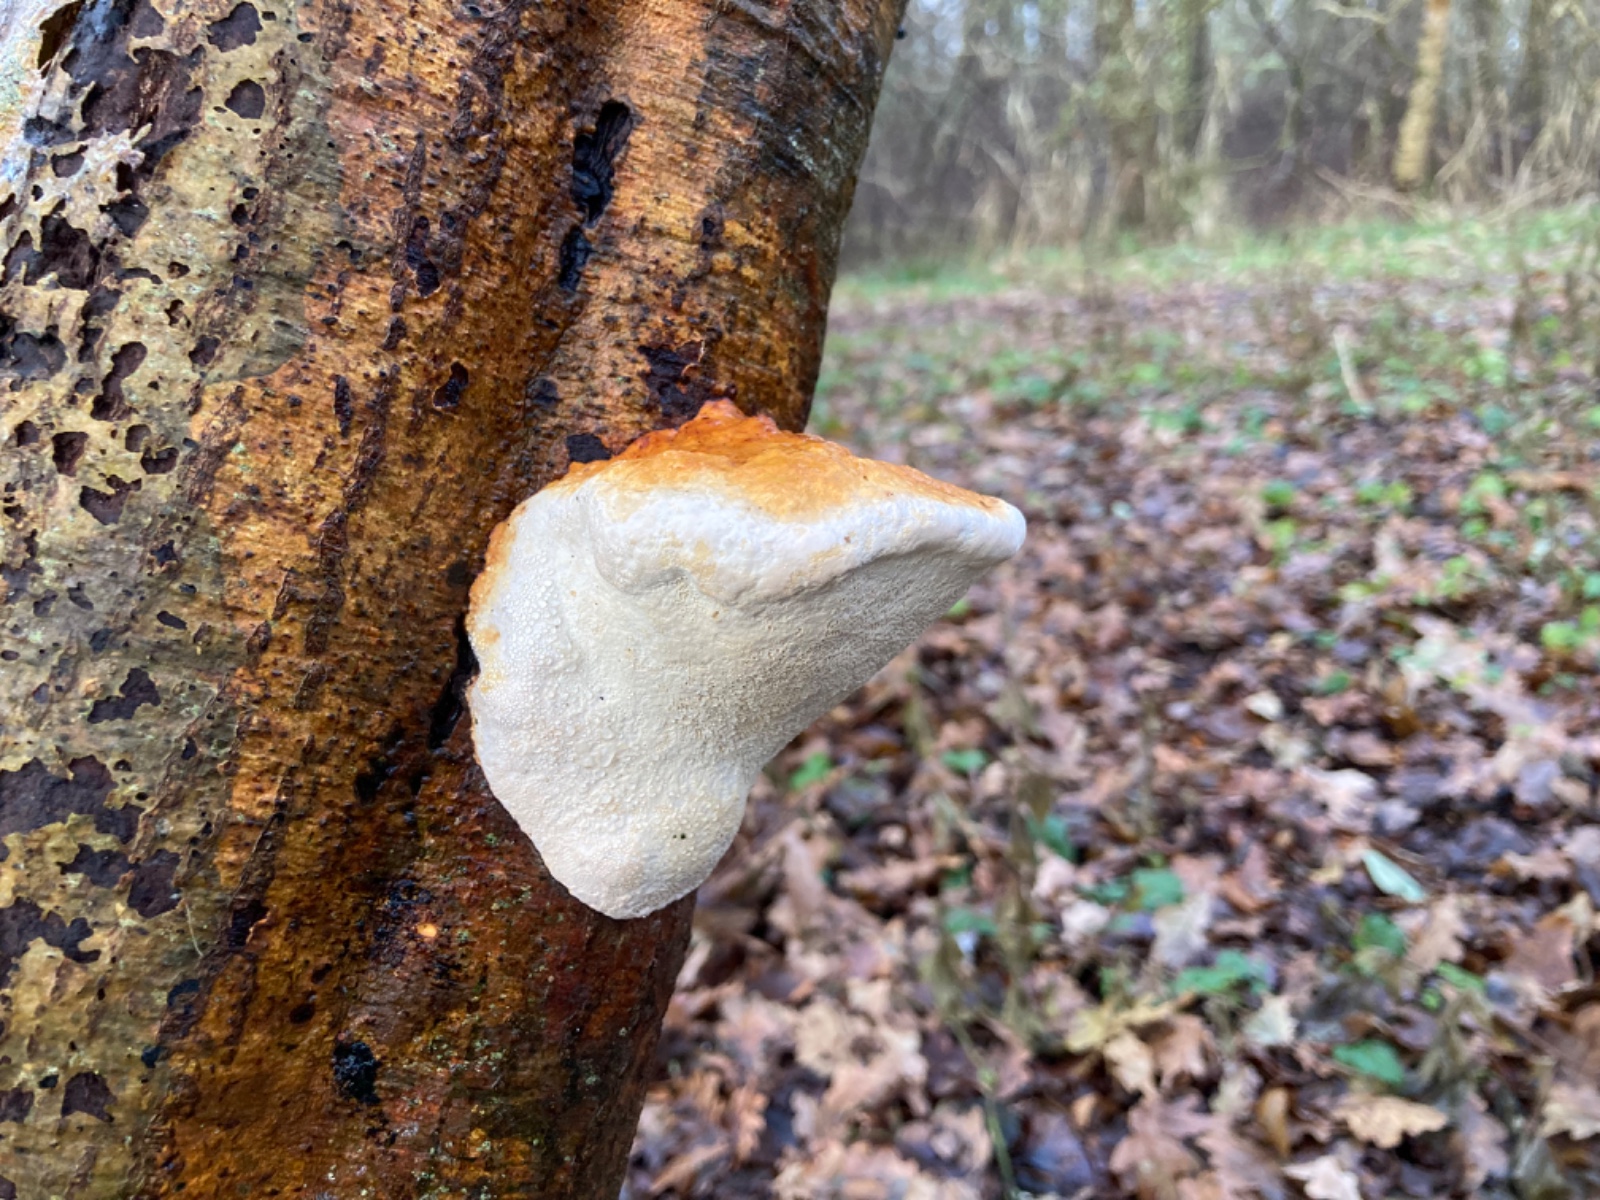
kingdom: Fungi
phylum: Basidiomycota
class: Agaricomycetes
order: Polyporales
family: Fomitopsidaceae
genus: Fomitopsis
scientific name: Fomitopsis betulina
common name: birkeporesvamp
